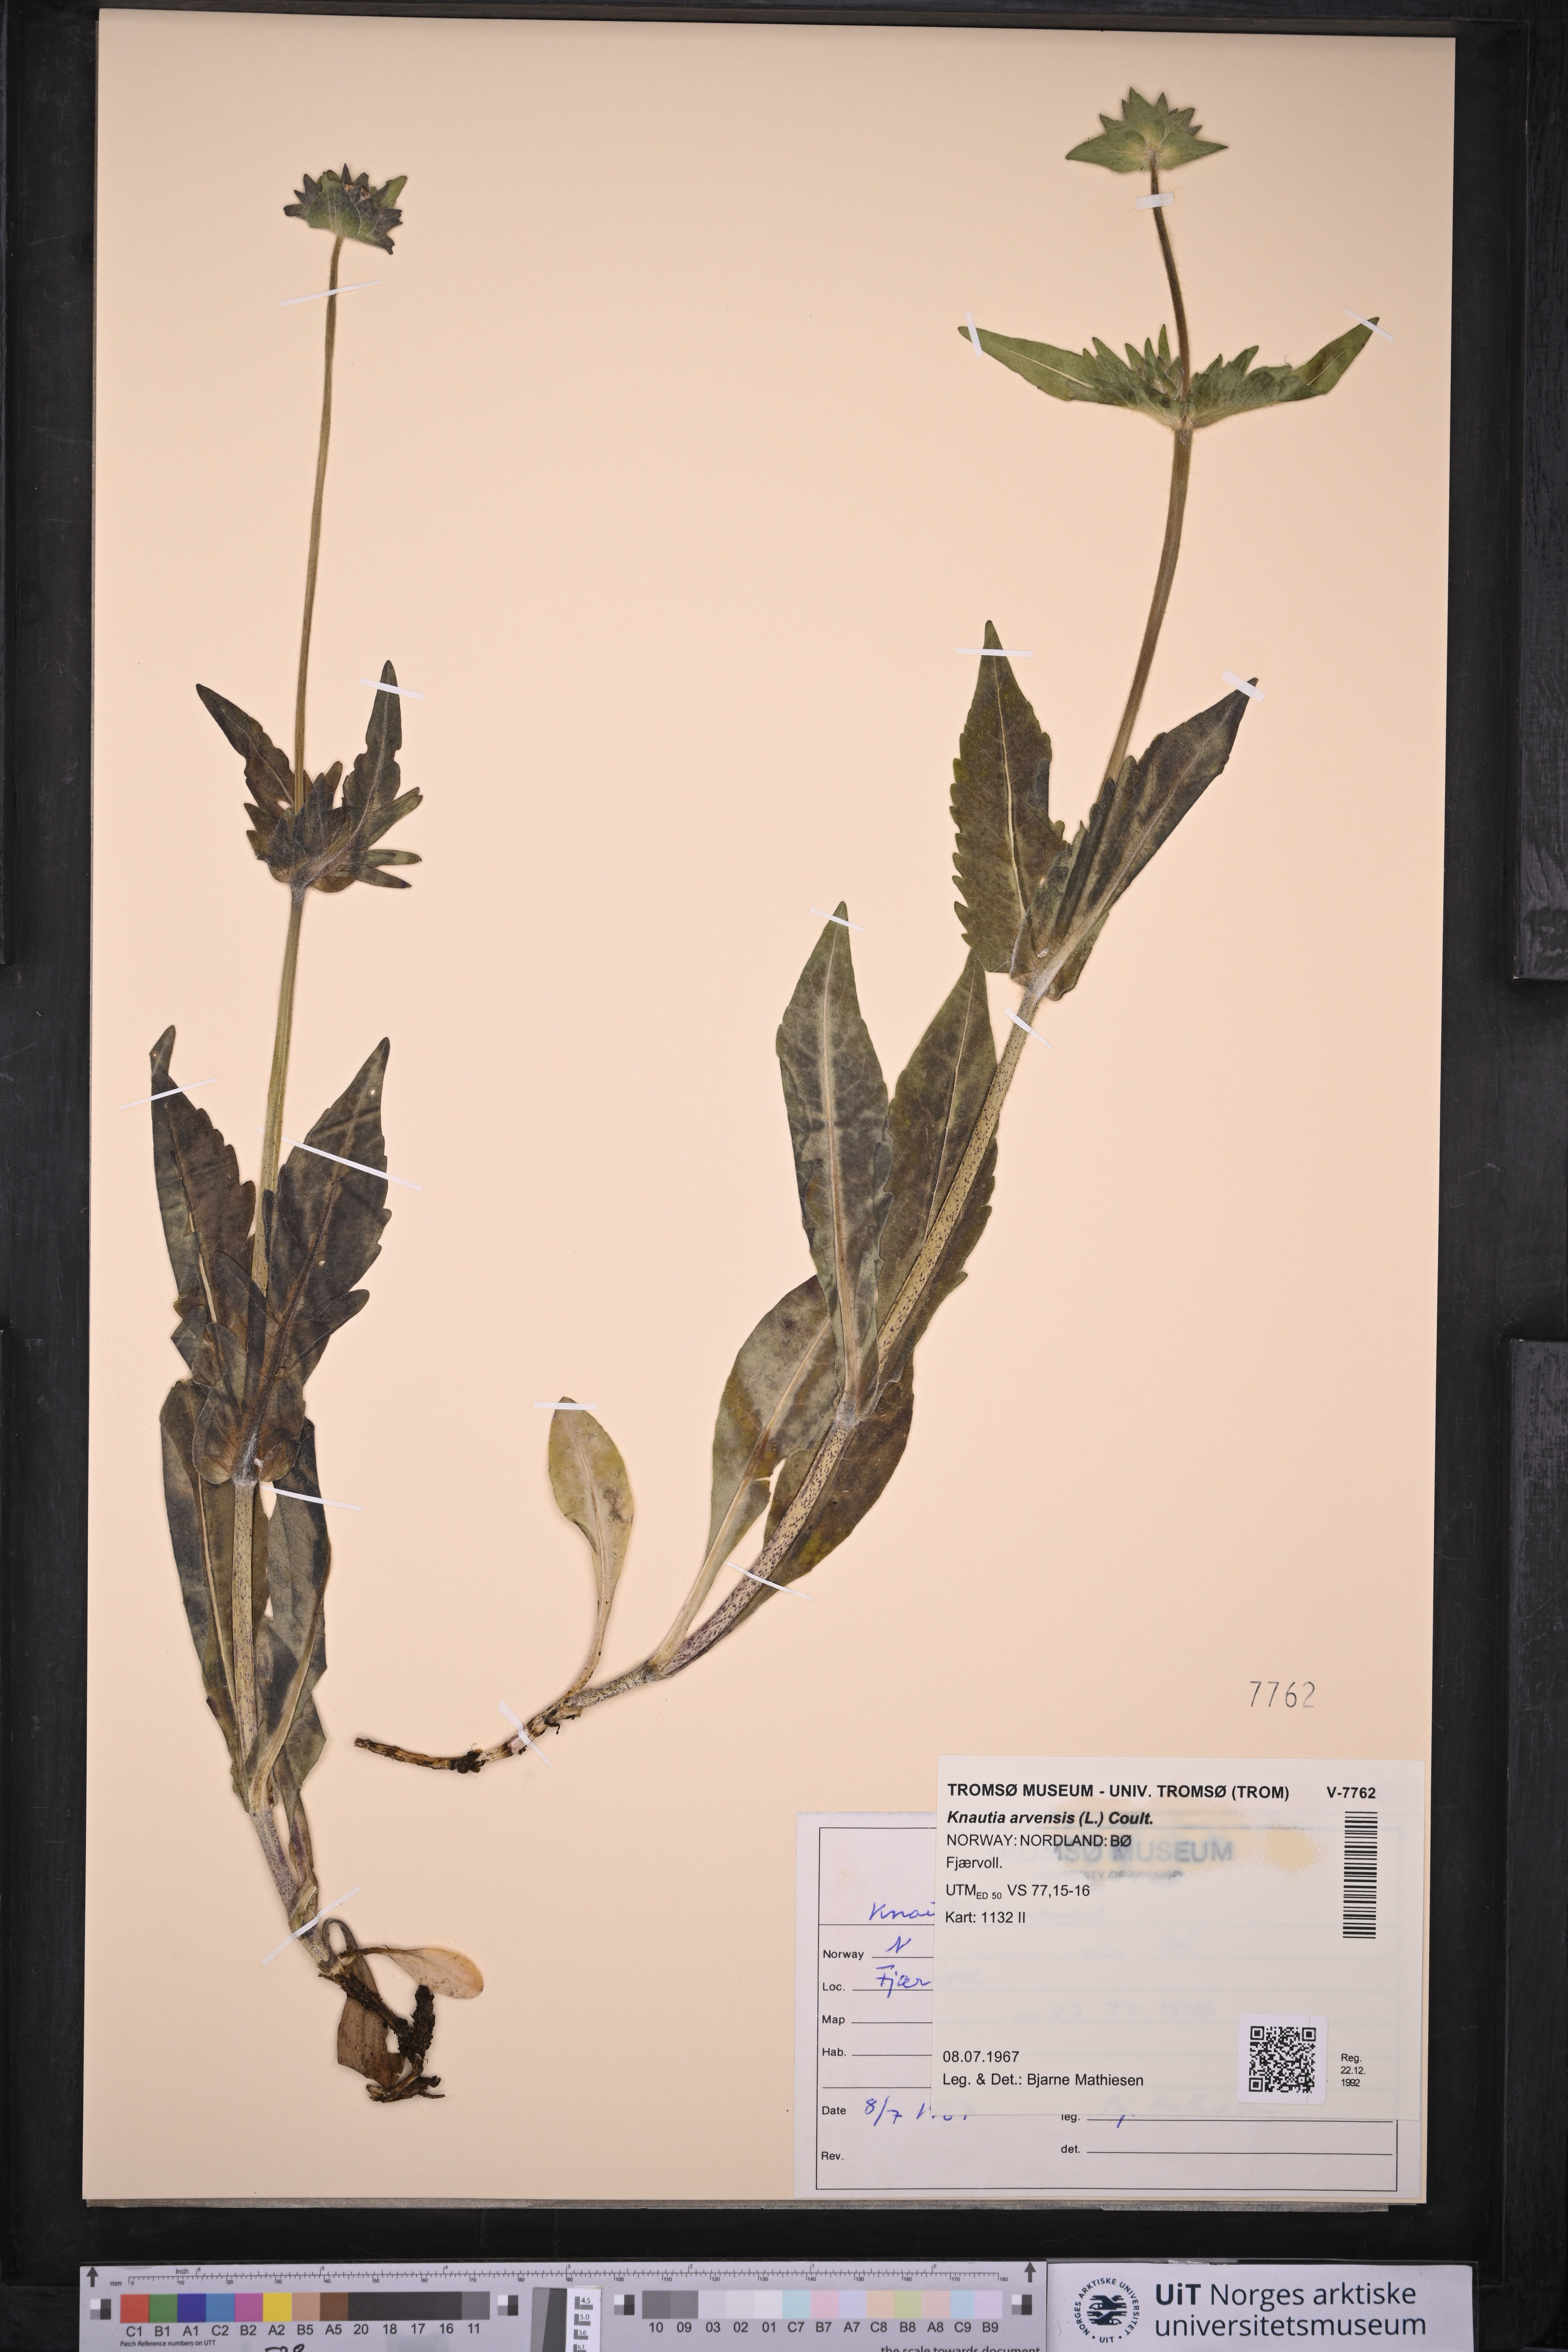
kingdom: Plantae
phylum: Tracheophyta
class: Magnoliopsida
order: Dipsacales
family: Caprifoliaceae
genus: Knautia
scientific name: Knautia arvensis
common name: Field scabiosa
